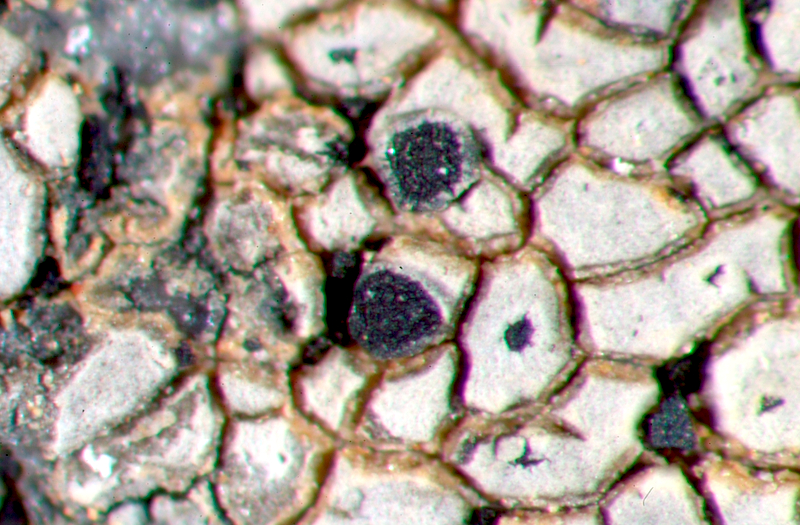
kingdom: Fungi
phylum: Ascomycota
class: Lecanoromycetes
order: Caliciales
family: Physciaceae
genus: Rinodina
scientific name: Rinodina gennarii
